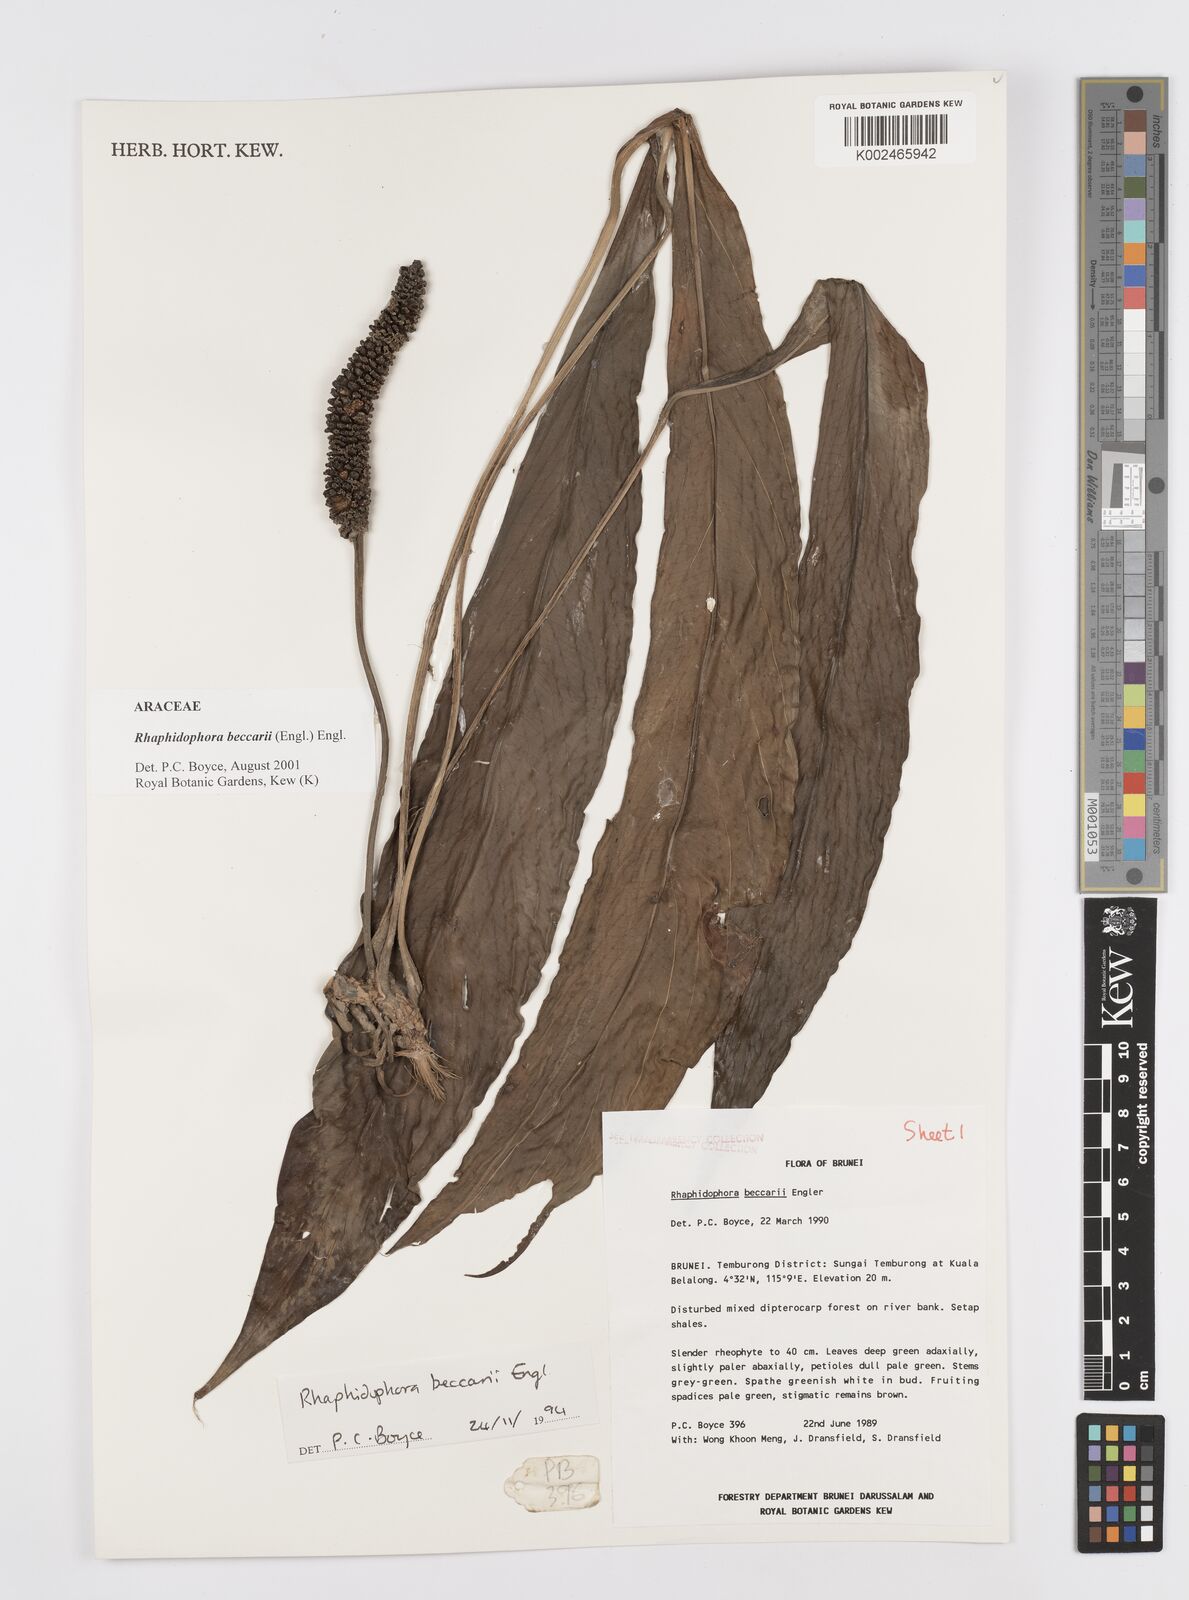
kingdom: Plantae
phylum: Tracheophyta
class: Liliopsida
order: Alismatales
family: Araceae
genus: Rhaphidophora
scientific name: Rhaphidophora beccarii
